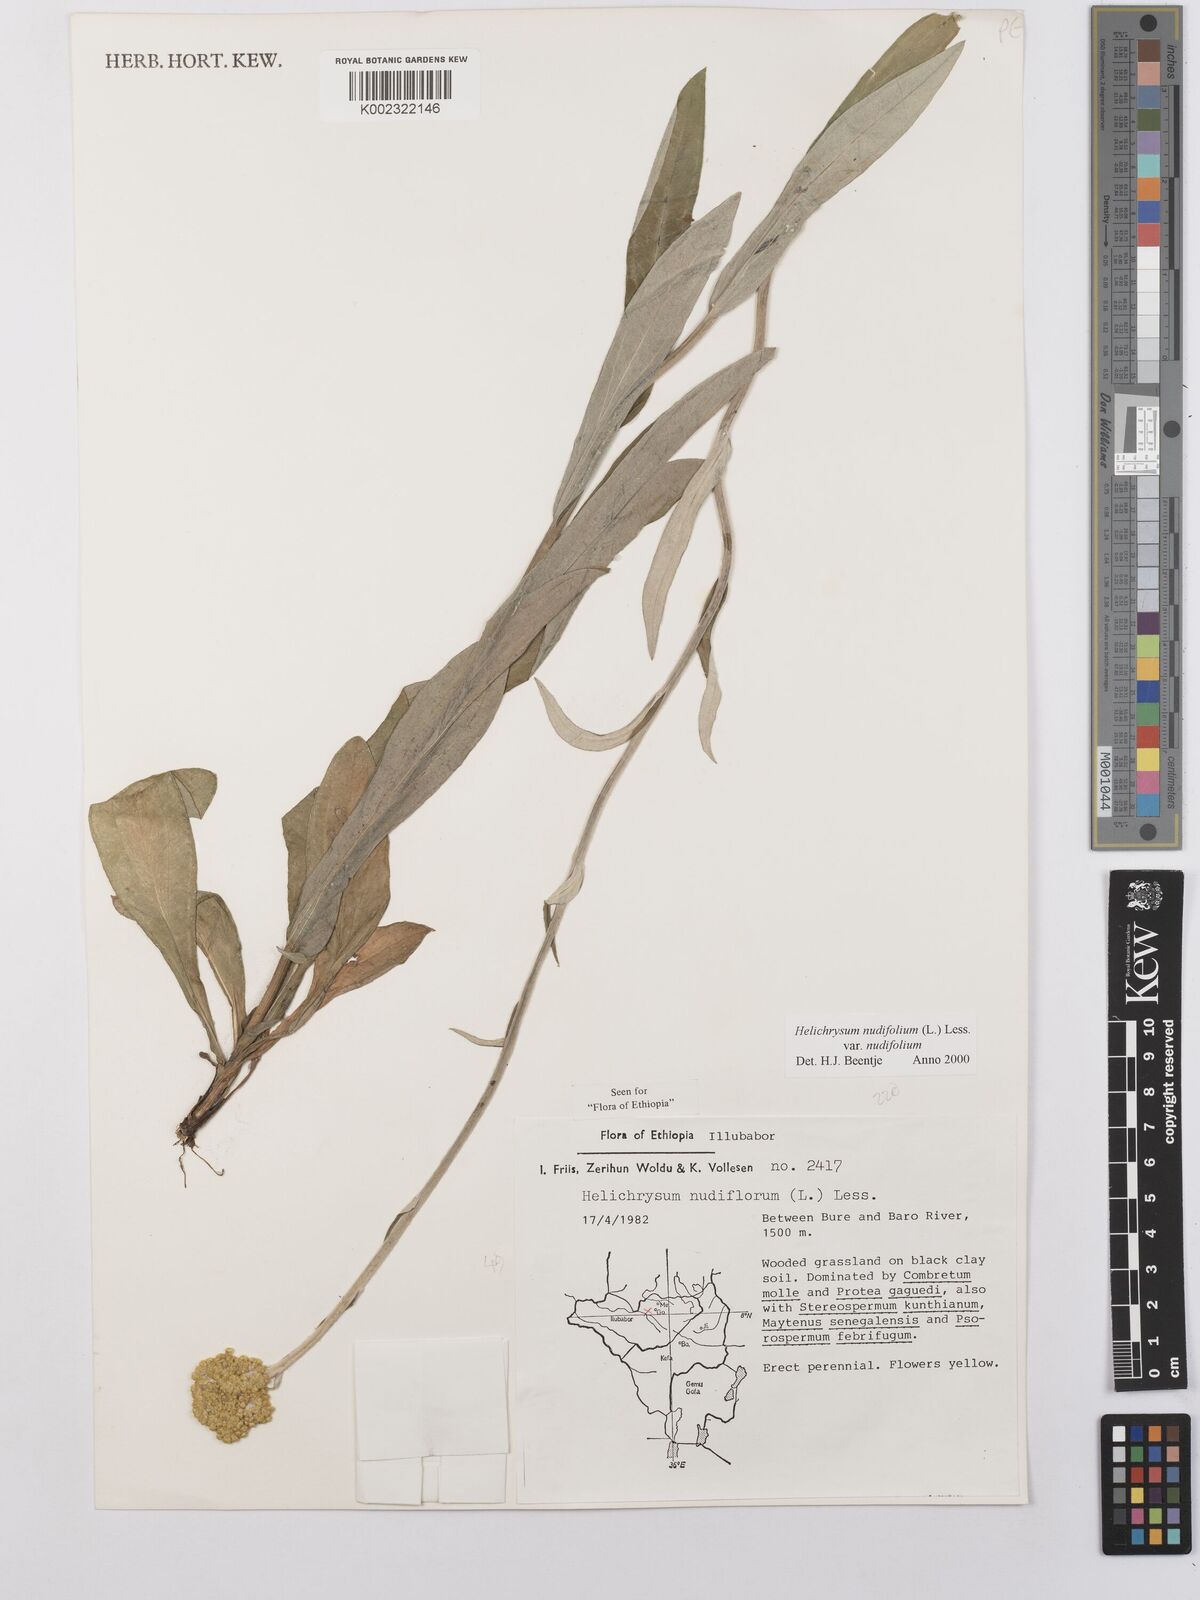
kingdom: Plantae
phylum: Tracheophyta
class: Magnoliopsida
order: Asterales
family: Asteraceae
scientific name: Asteraceae
